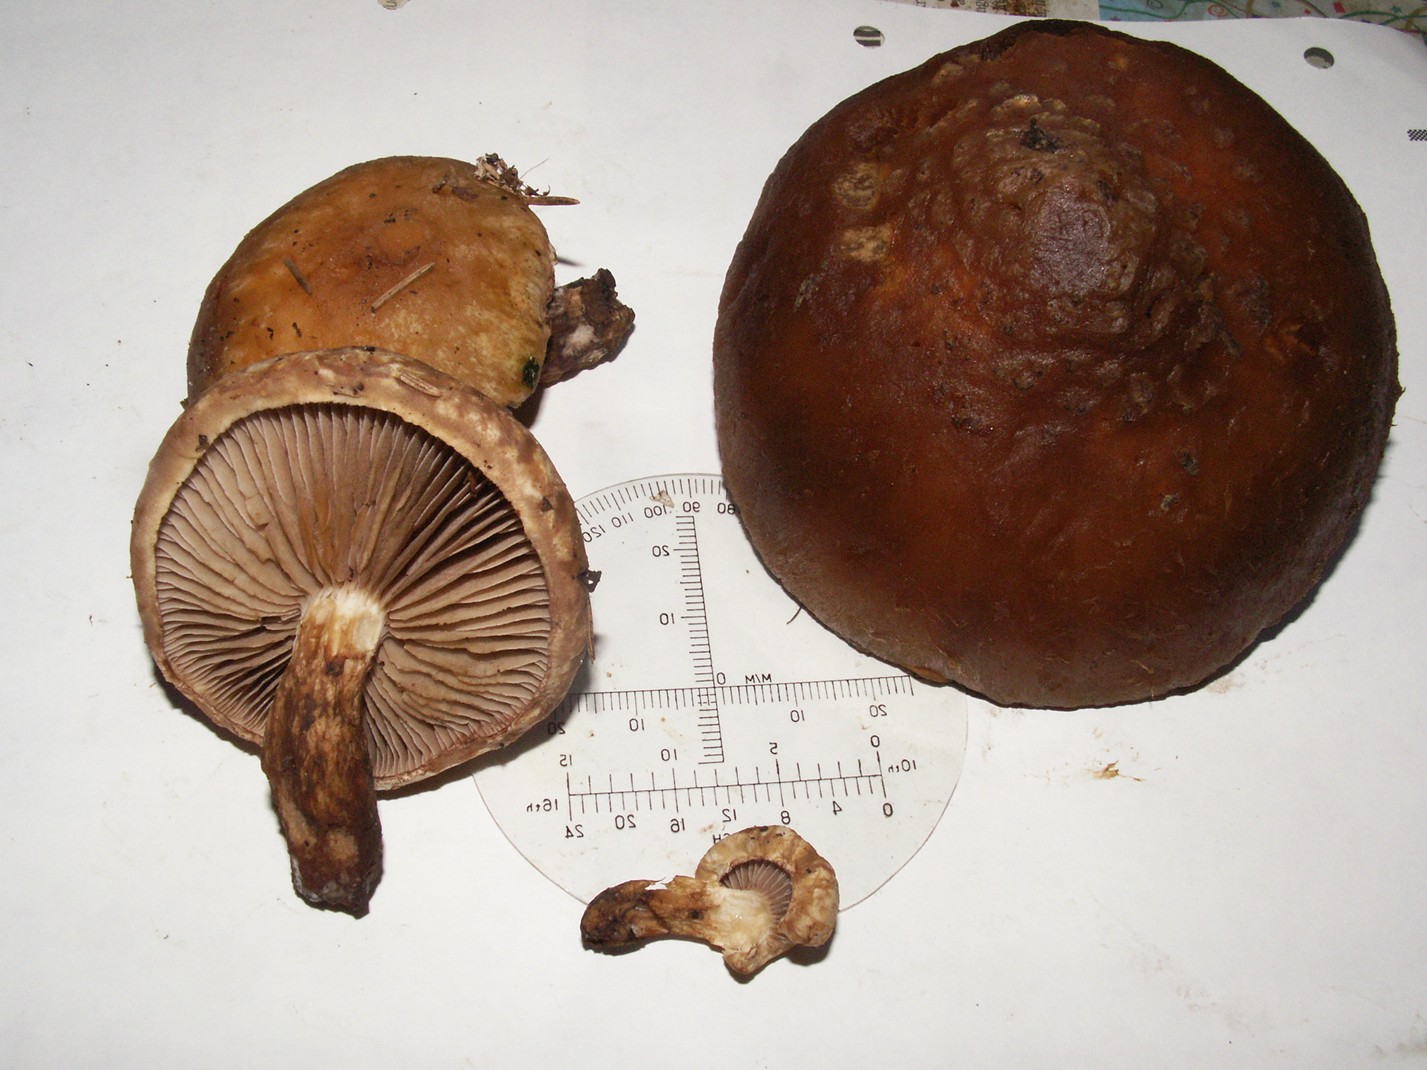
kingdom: Fungi
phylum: Basidiomycota
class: Agaricomycetes
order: Agaricales
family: Strophariaceae
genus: Pholiota
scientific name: Pholiota populnea
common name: poppel-kæmpeskælhat
